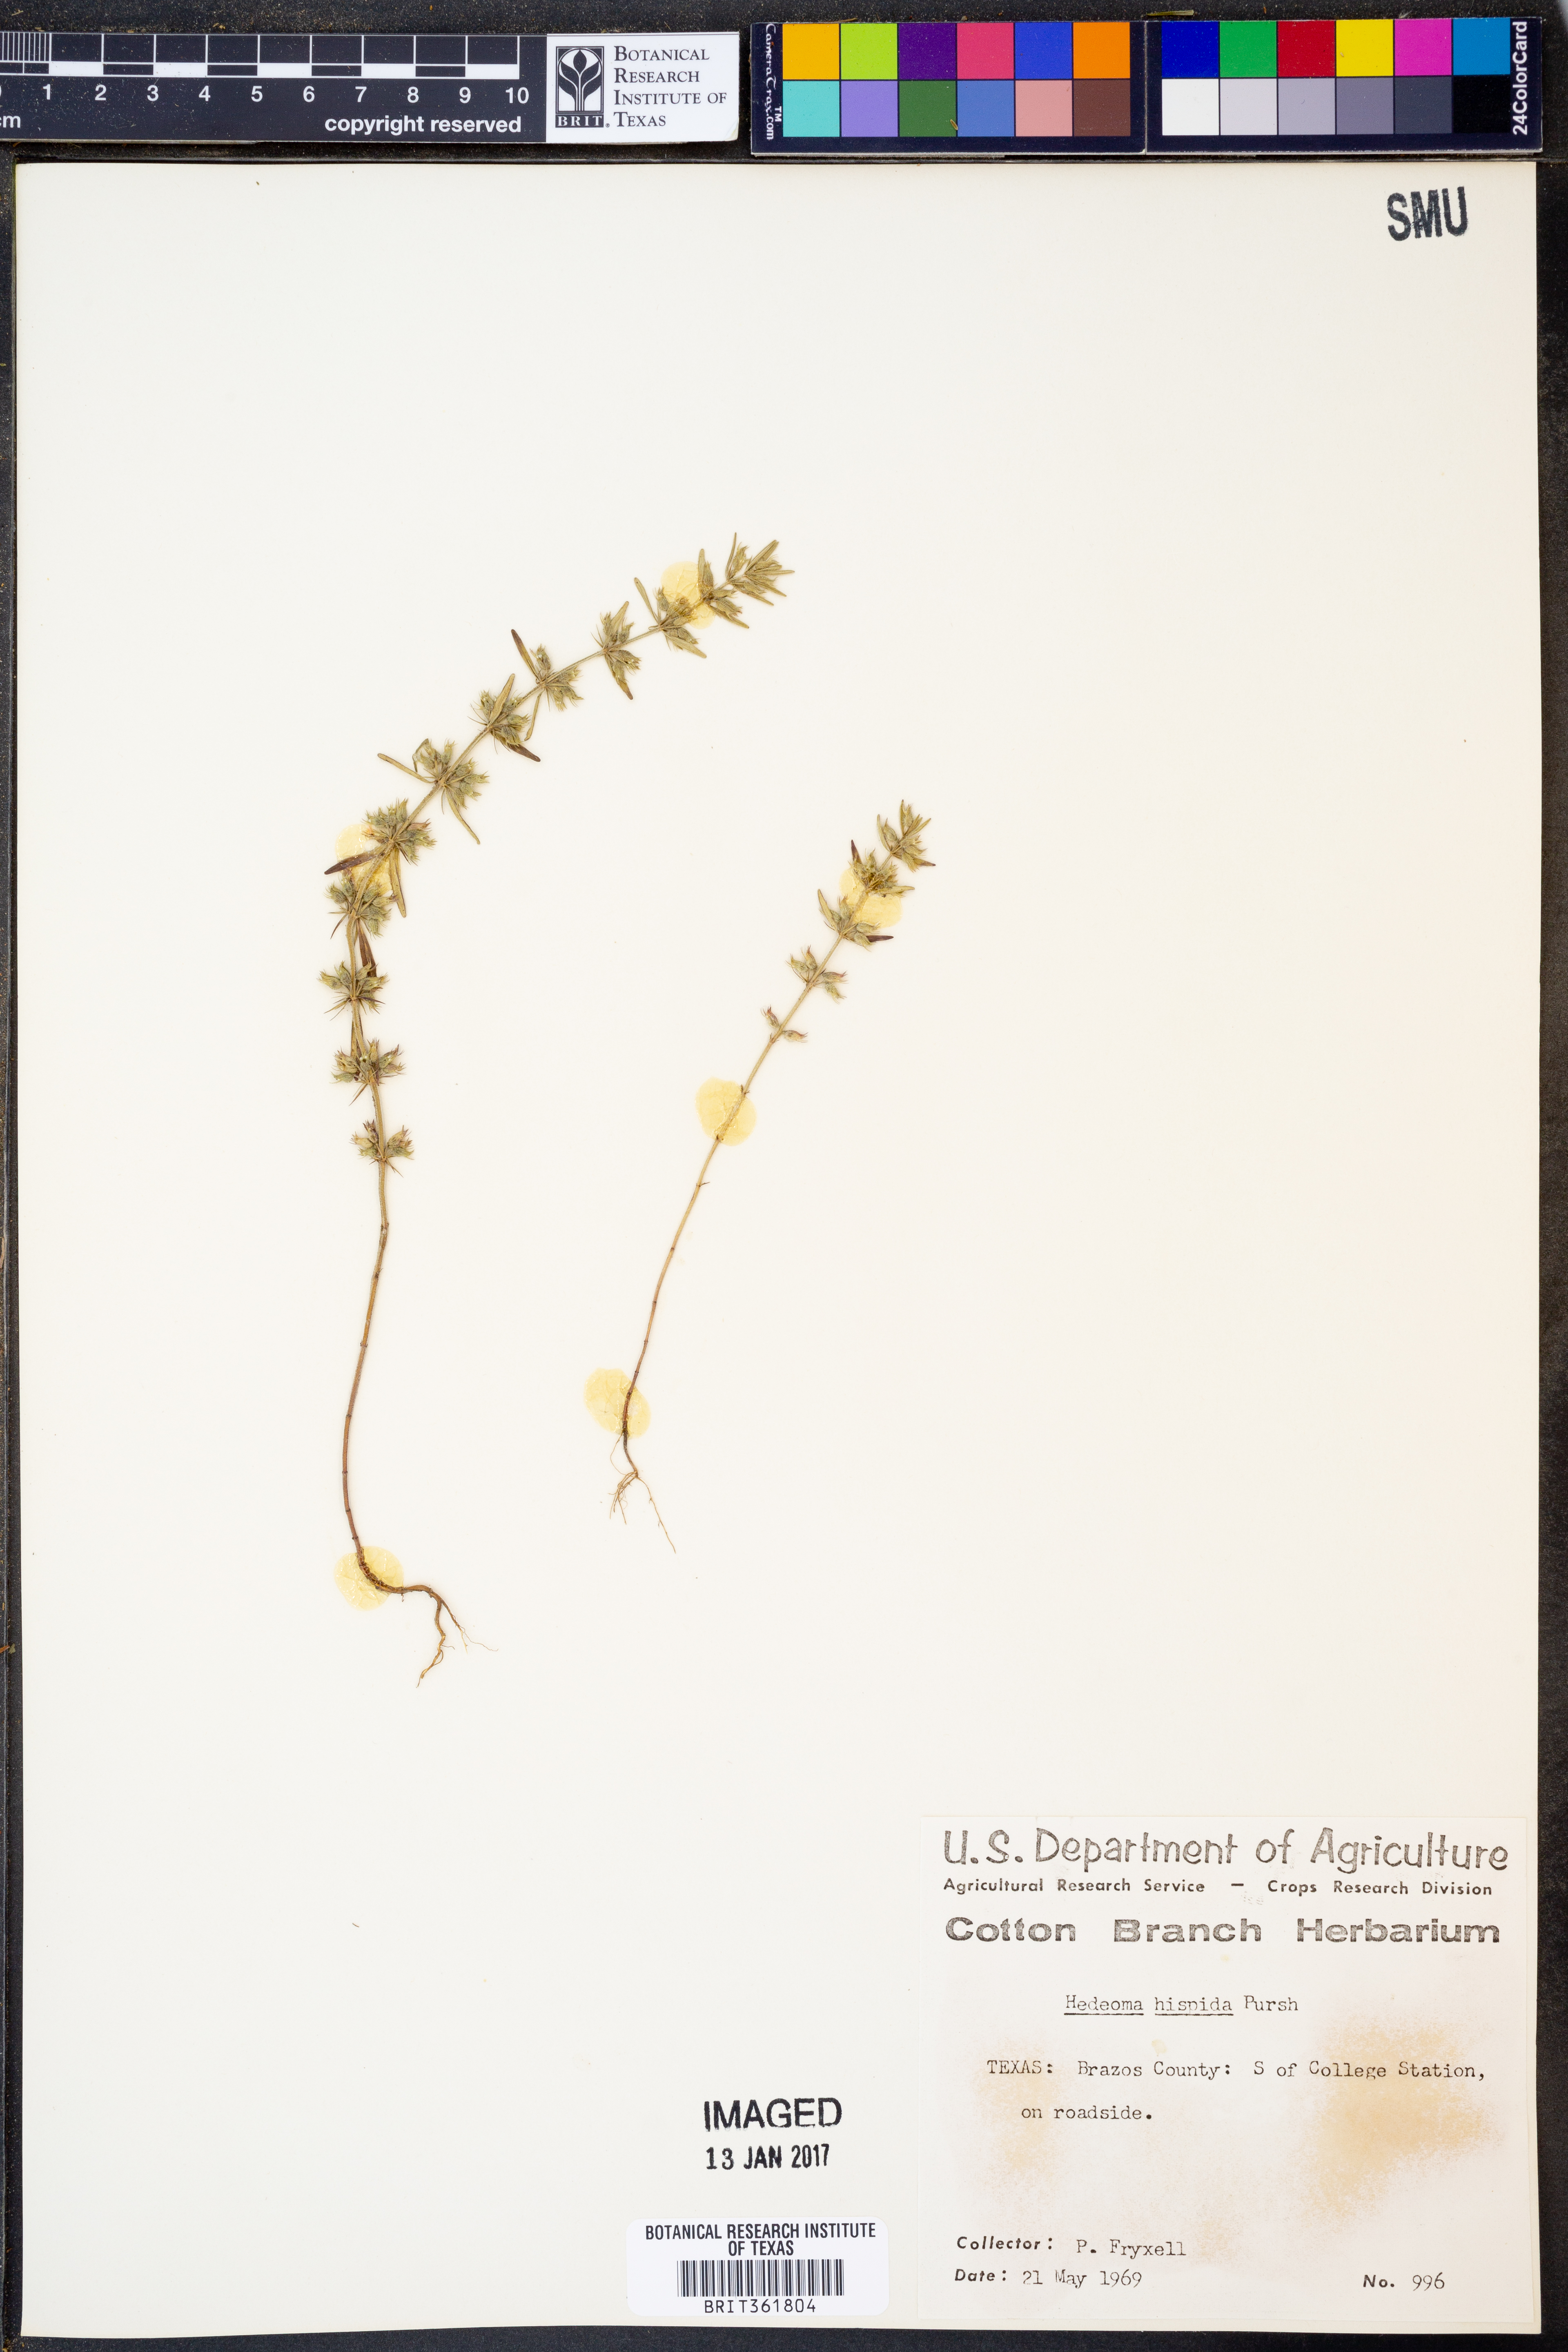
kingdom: Plantae
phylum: Tracheophyta
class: Magnoliopsida
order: Lamiales
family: Lamiaceae
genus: Hedeoma
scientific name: Hedeoma hispida
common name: Mock pennyroyal
